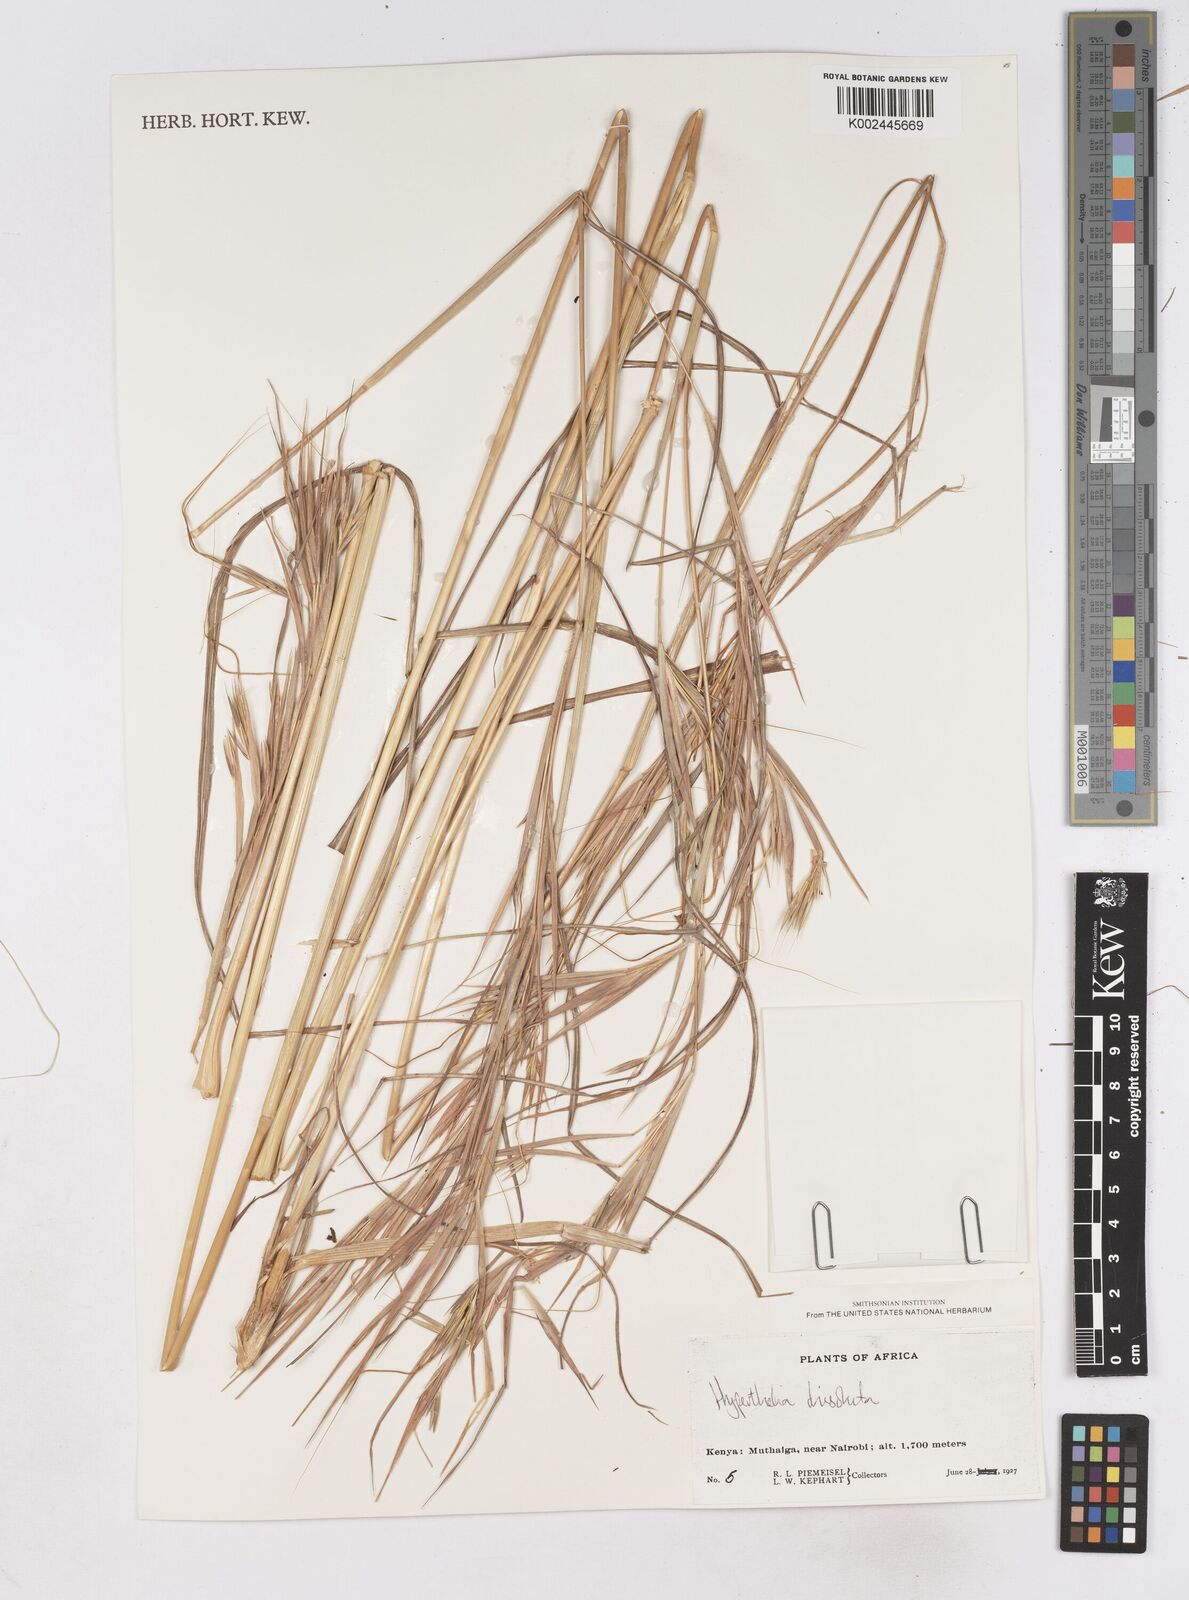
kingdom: Plantae
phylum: Tracheophyta
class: Liliopsida
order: Poales
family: Poaceae
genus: Hyperthelia
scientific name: Hyperthelia dissoluta
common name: Yellow thatching grass
